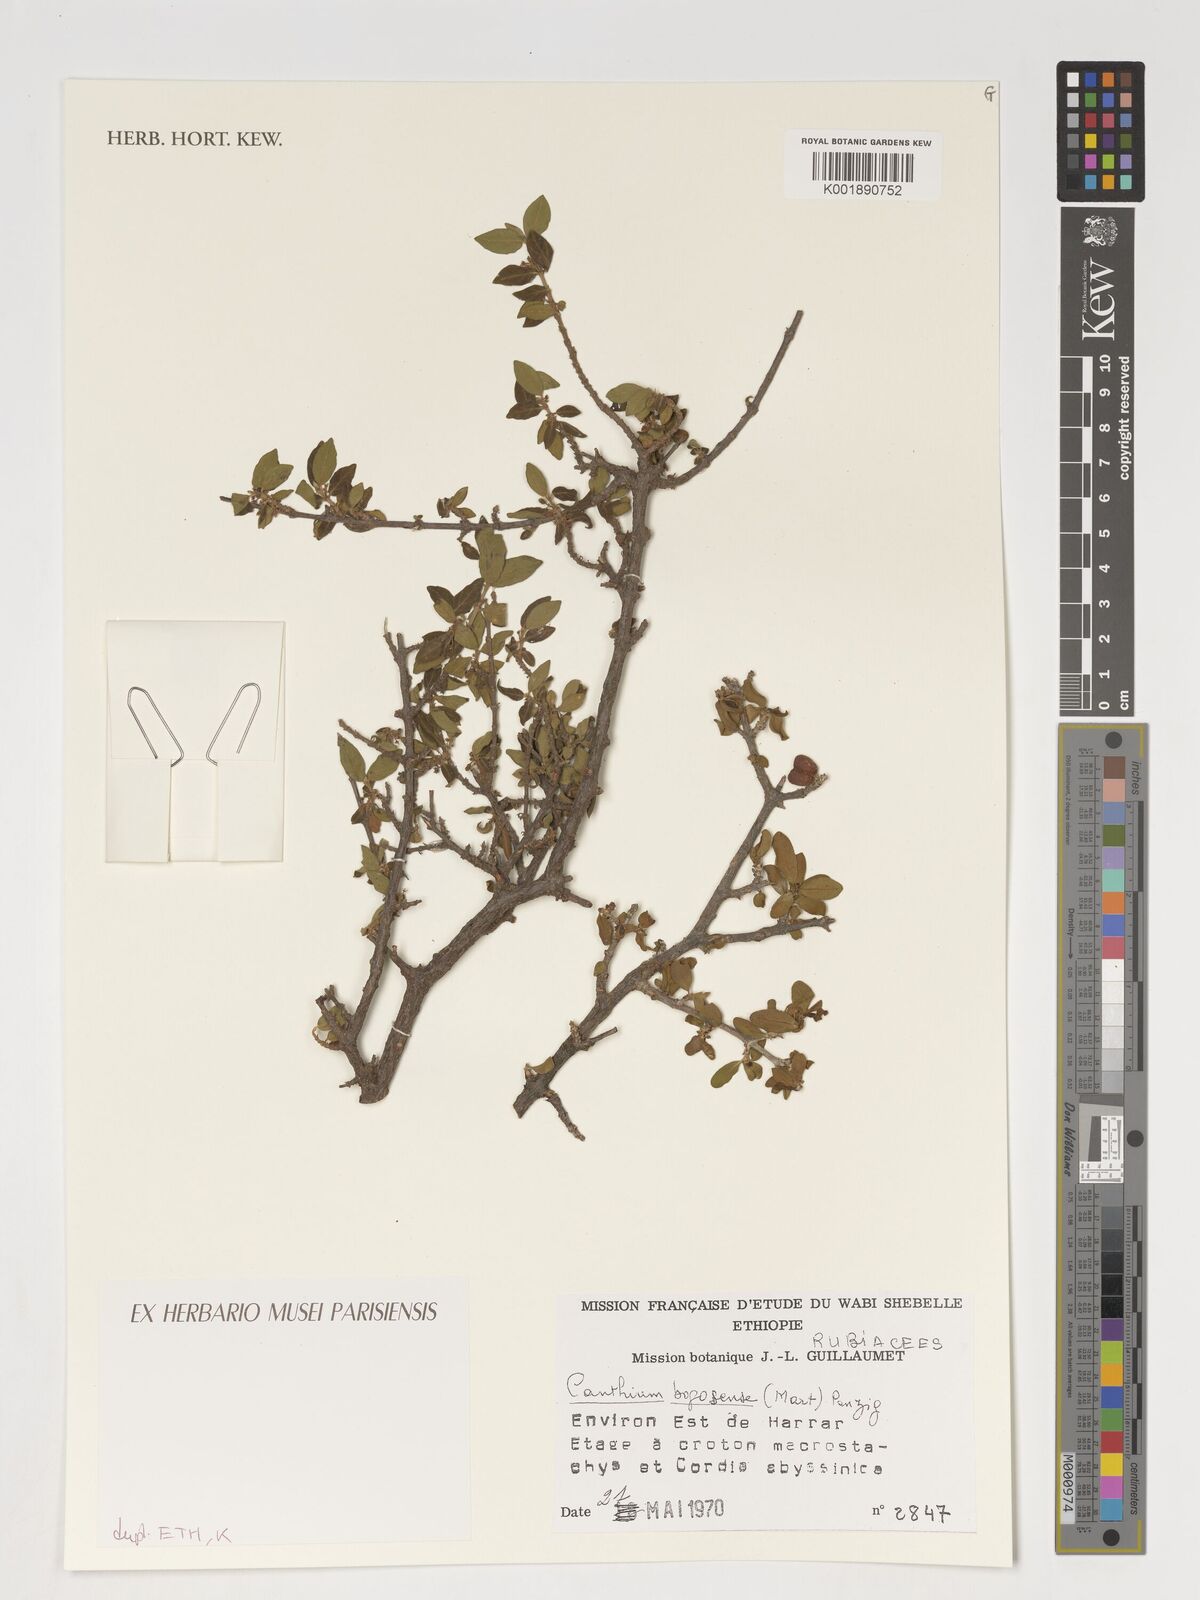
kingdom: Plantae
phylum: Tracheophyta
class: Magnoliopsida
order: Gentianales
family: Rubiaceae
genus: Pyrostria
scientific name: Pyrostria phyllanthoidea
